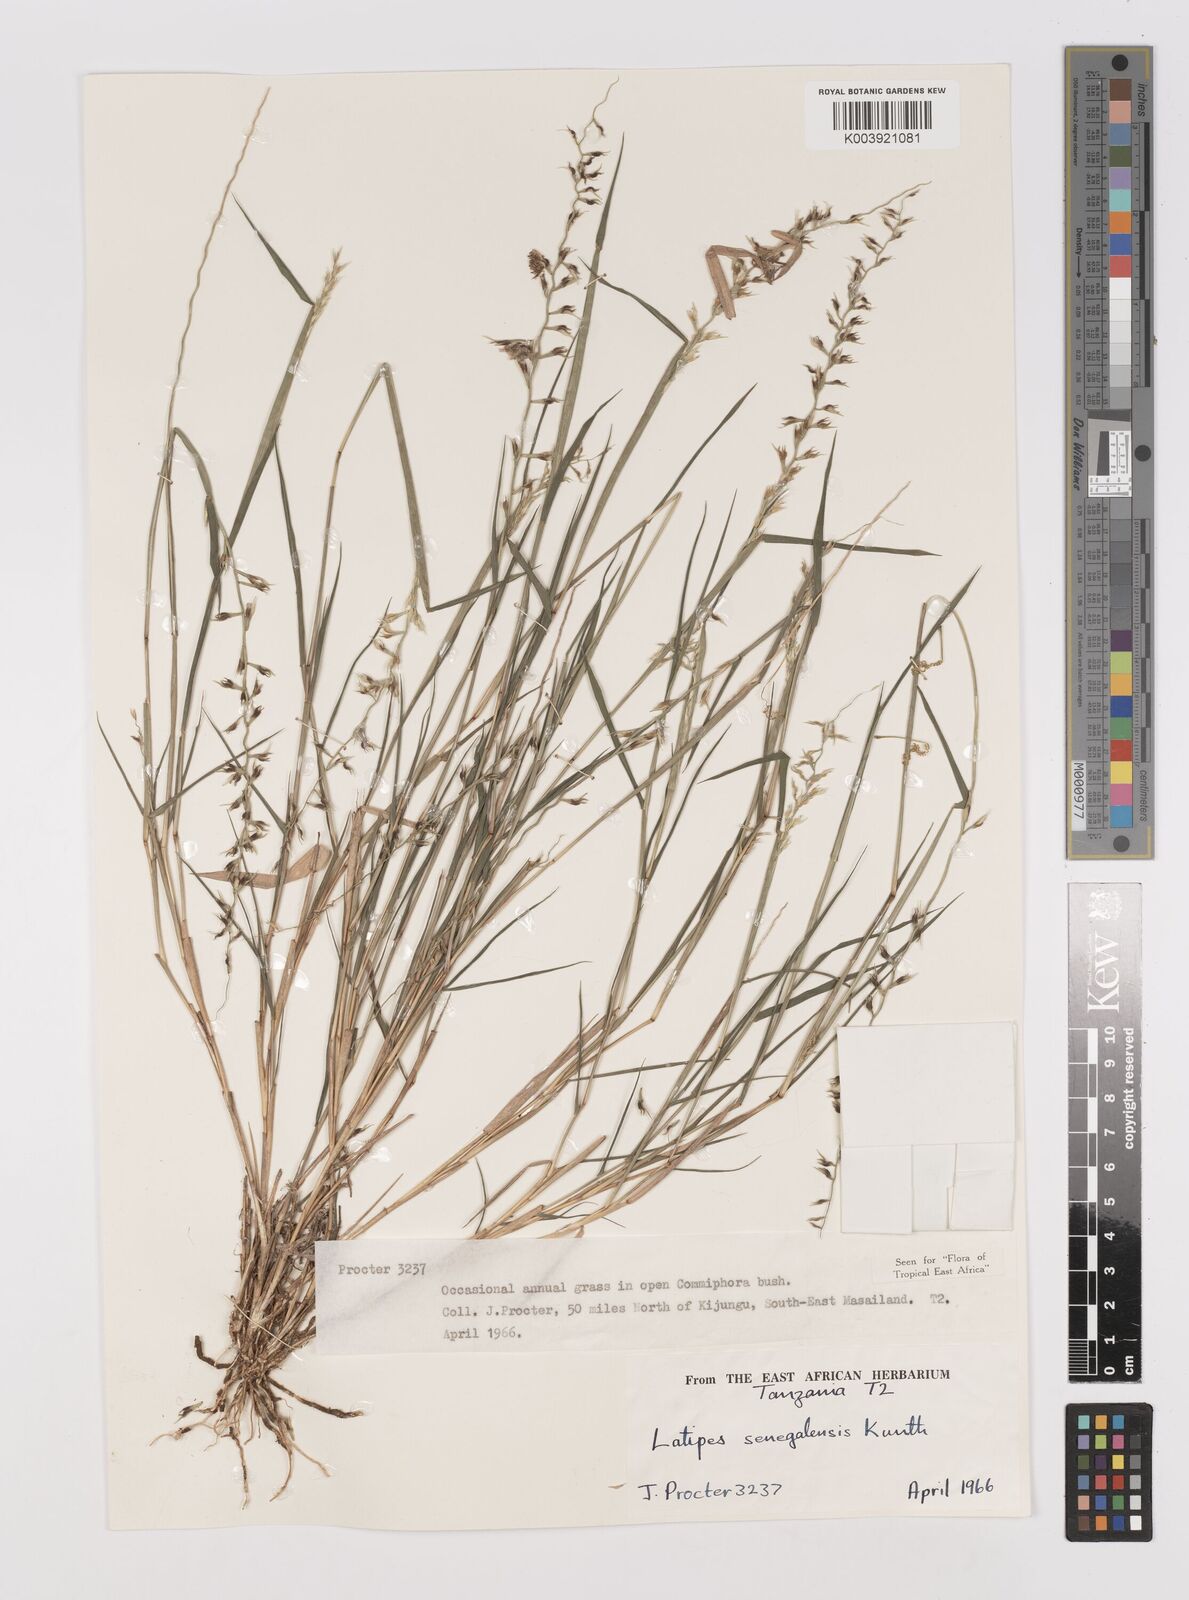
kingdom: Plantae
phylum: Tracheophyta
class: Liliopsida
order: Poales
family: Poaceae
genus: Leptothrium
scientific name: Leptothrium senegalense
